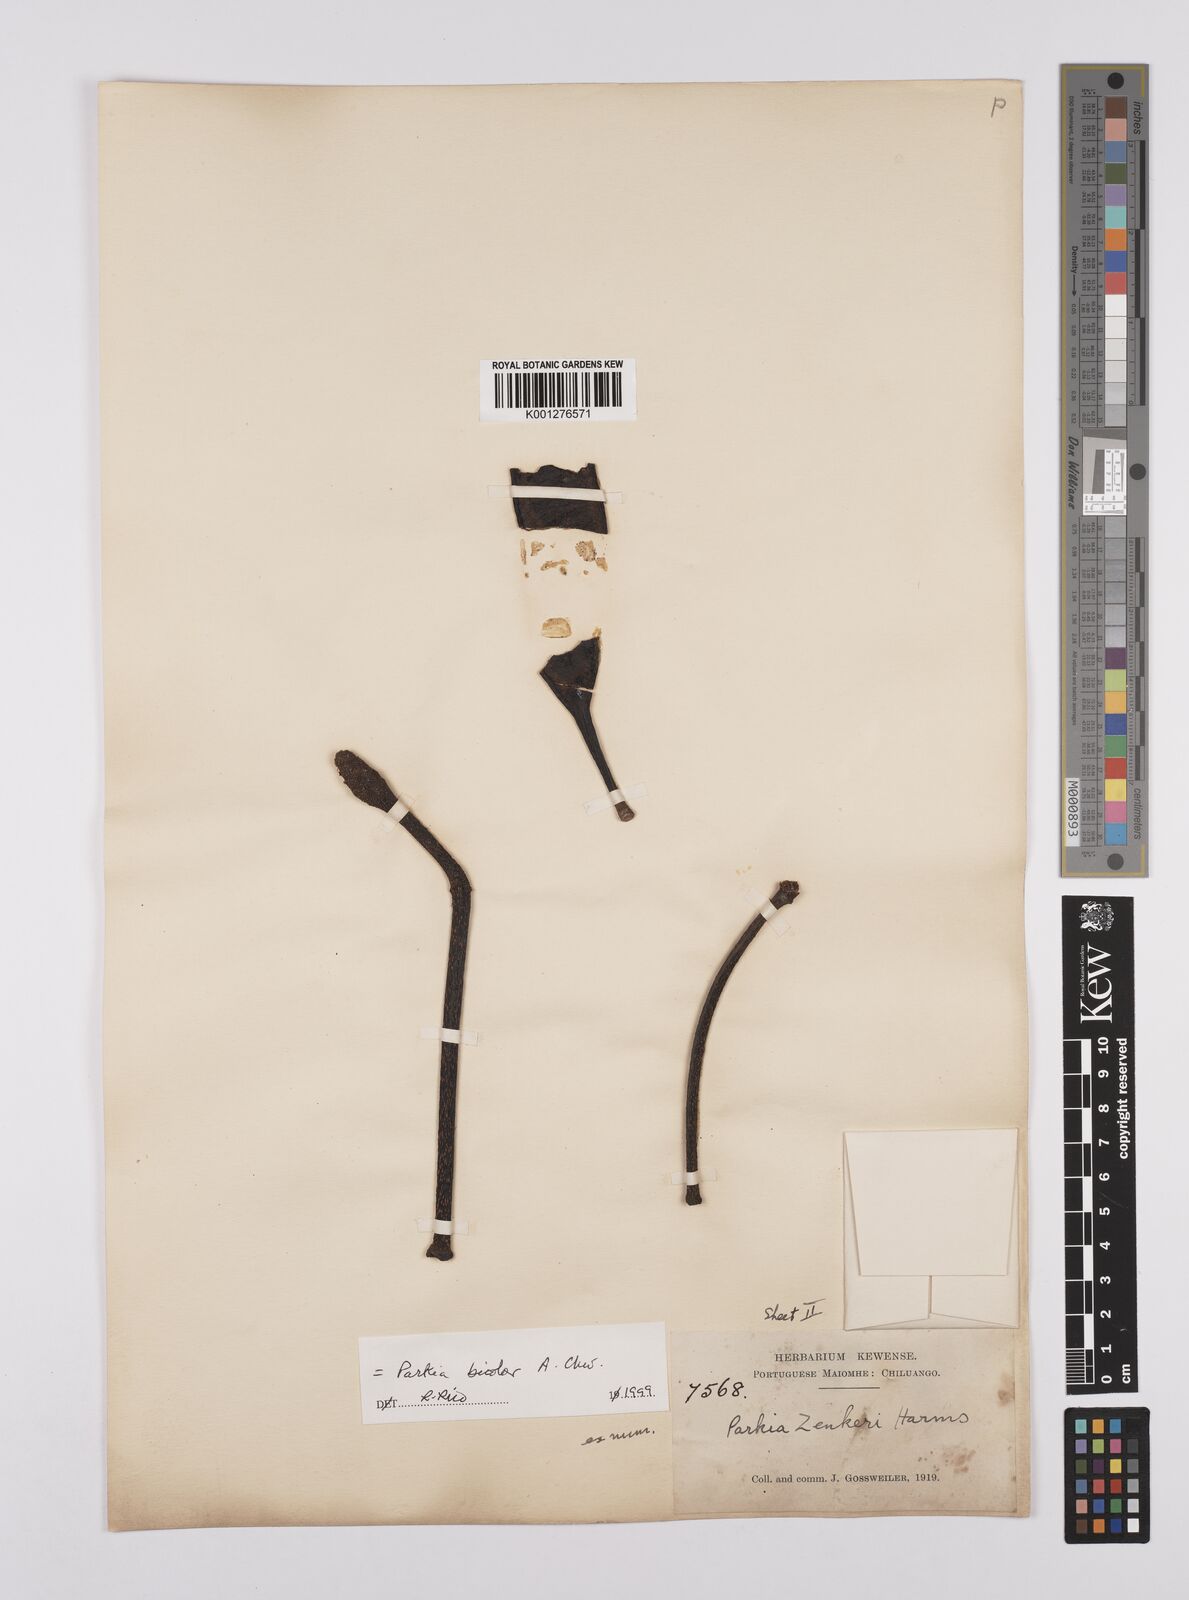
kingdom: Plantae
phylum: Tracheophyta
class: Magnoliopsida
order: Fabales
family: Fabaceae
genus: Parkia
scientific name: Parkia bicolor
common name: African locust-bean
